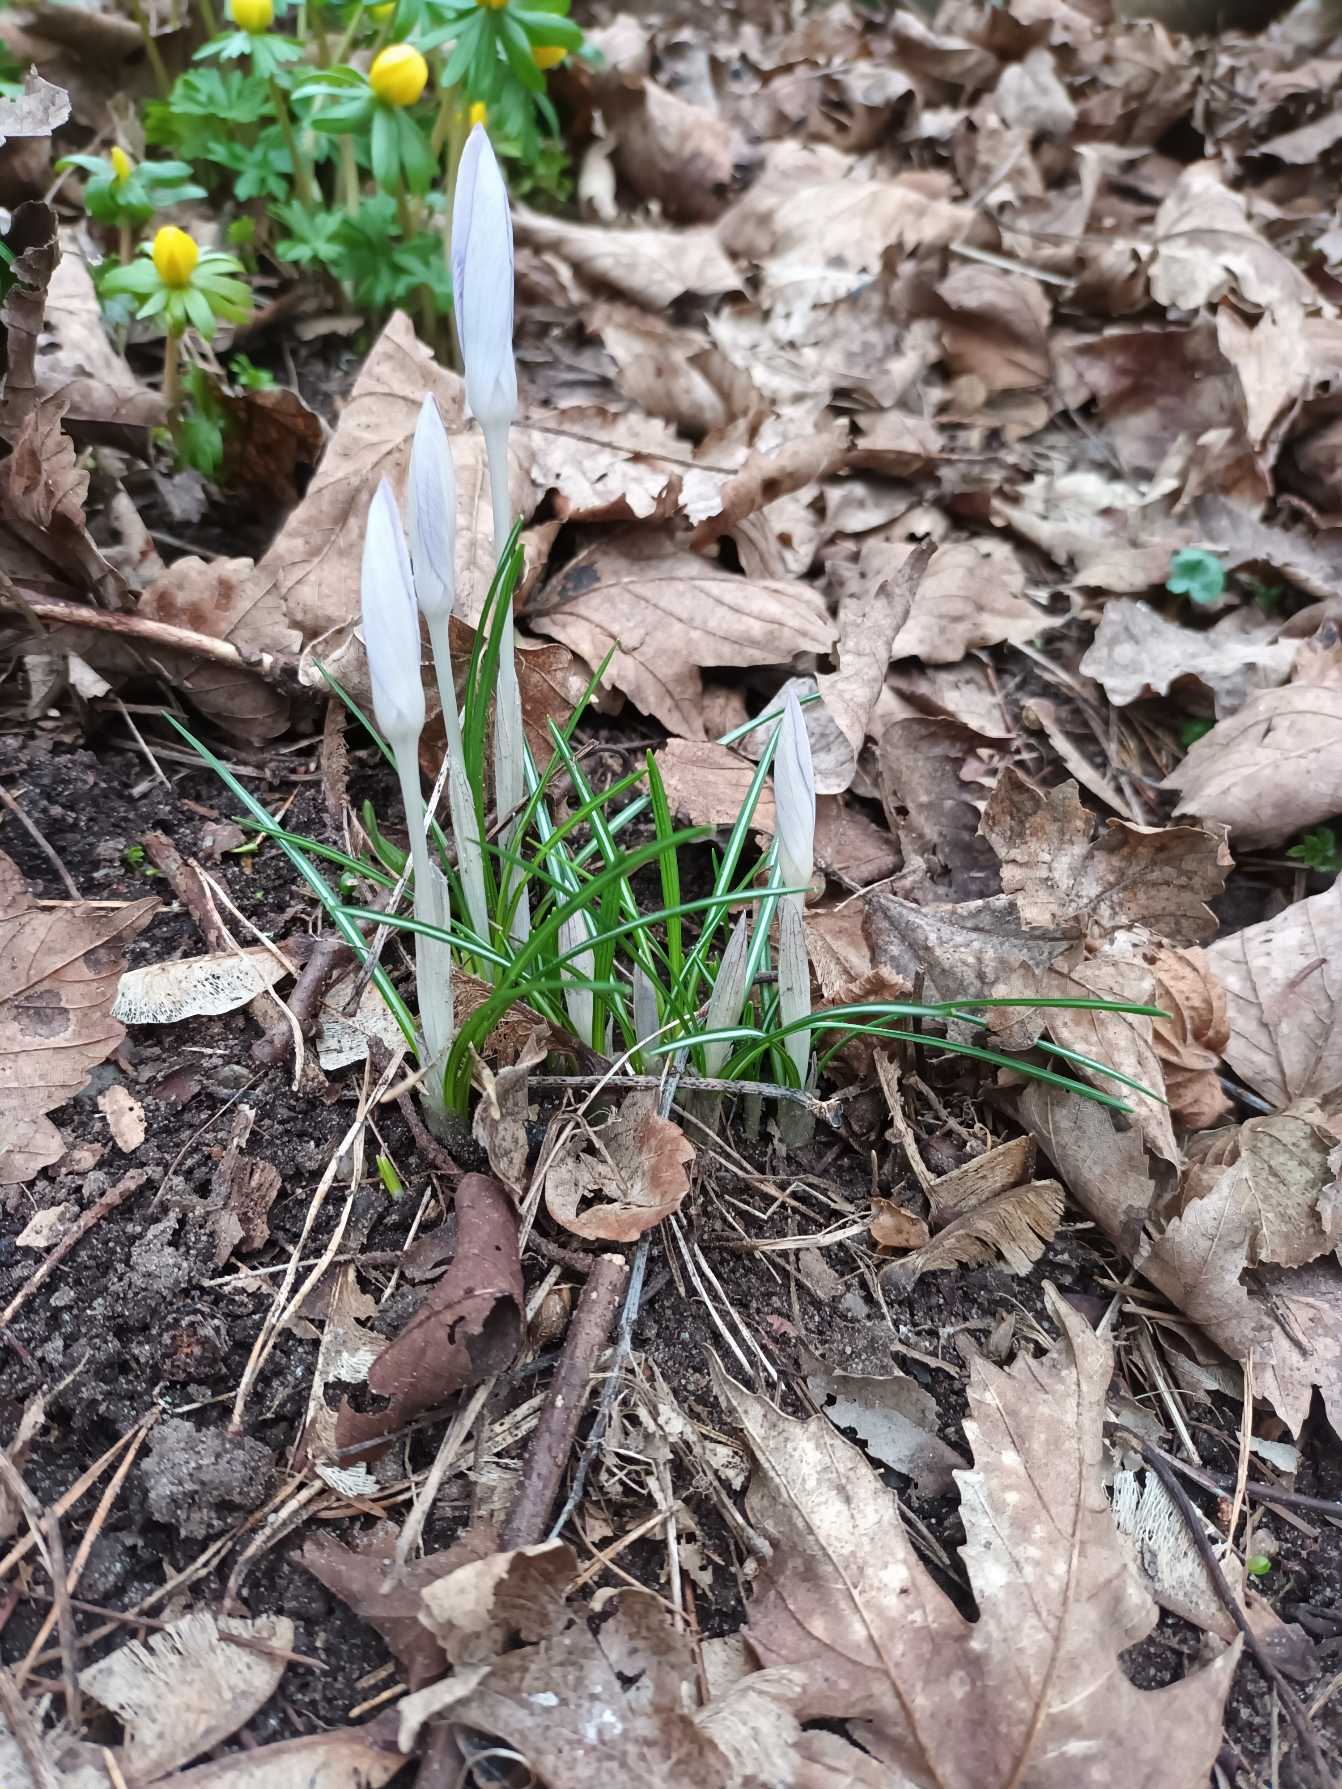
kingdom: Plantae
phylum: Tracheophyta
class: Liliopsida
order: Asparagales
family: Iridaceae
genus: Crocus
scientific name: Crocus tommasinianus
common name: Sne-krokus
